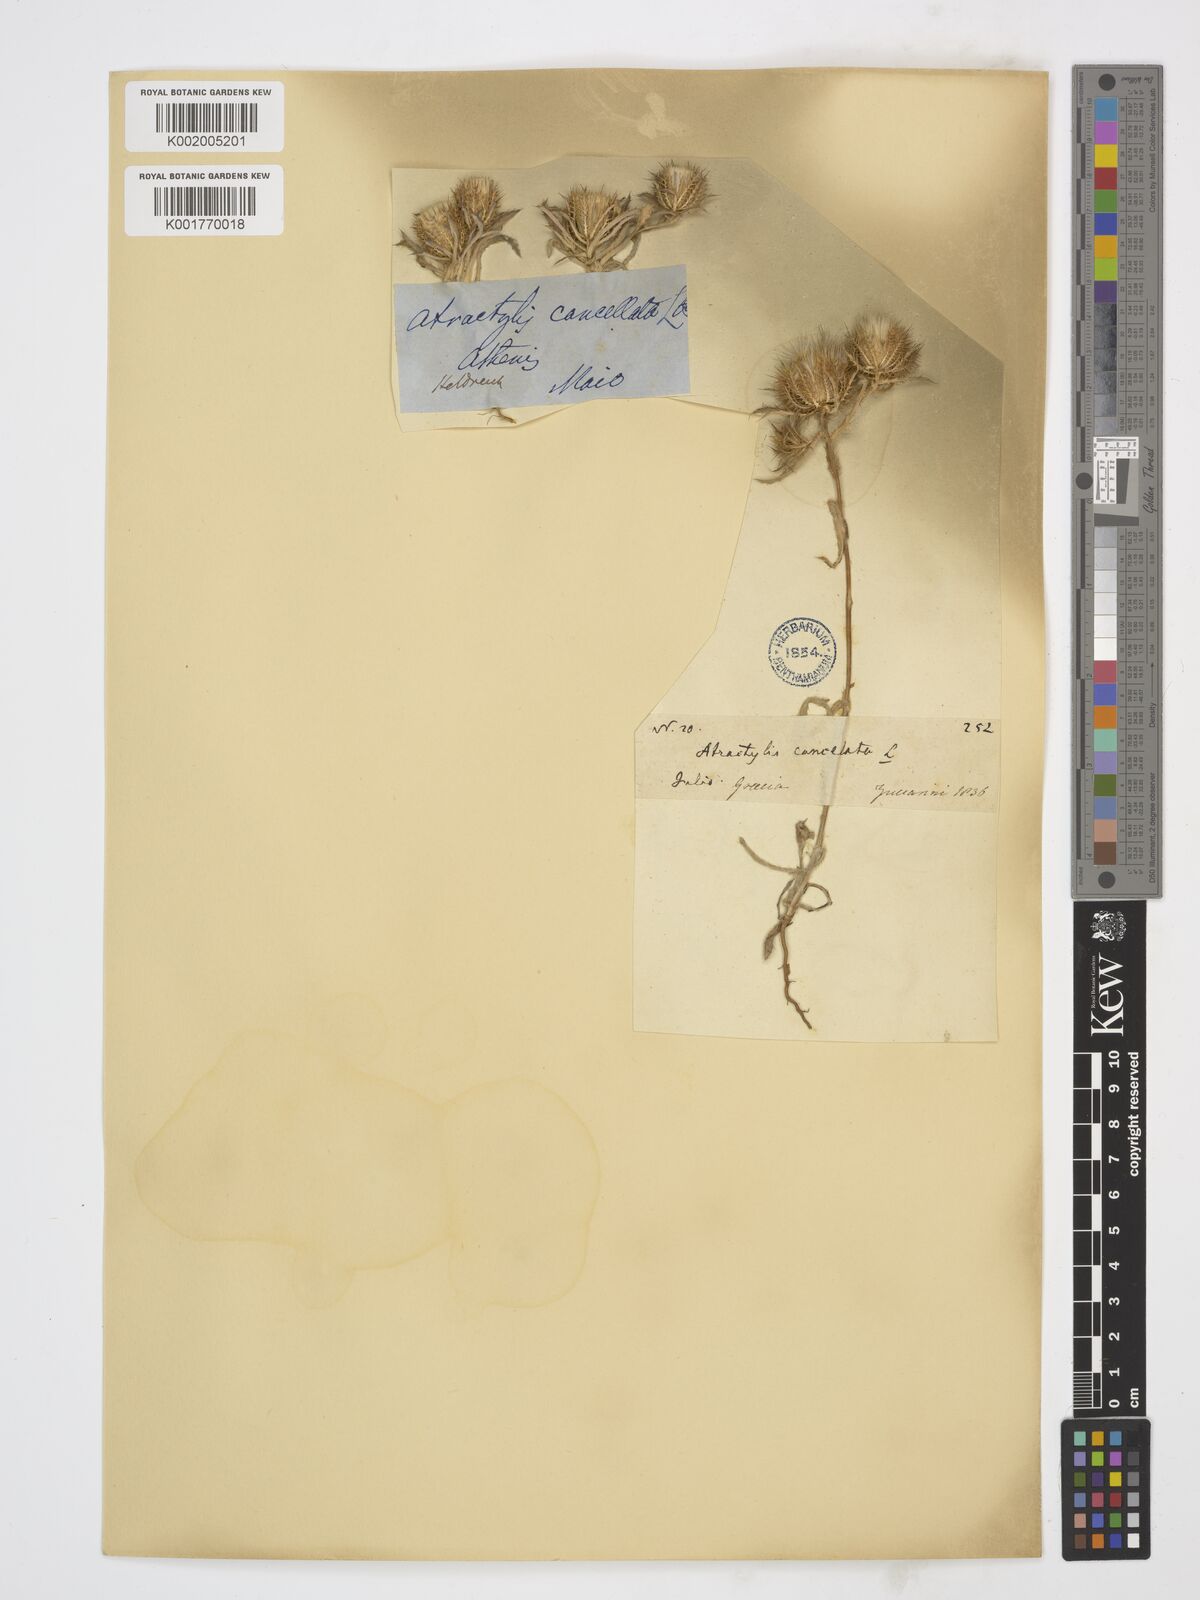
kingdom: Plantae
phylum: Tracheophyta
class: Magnoliopsida
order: Asterales
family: Asteraceae
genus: Atractylis
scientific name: Atractylis cancellata
